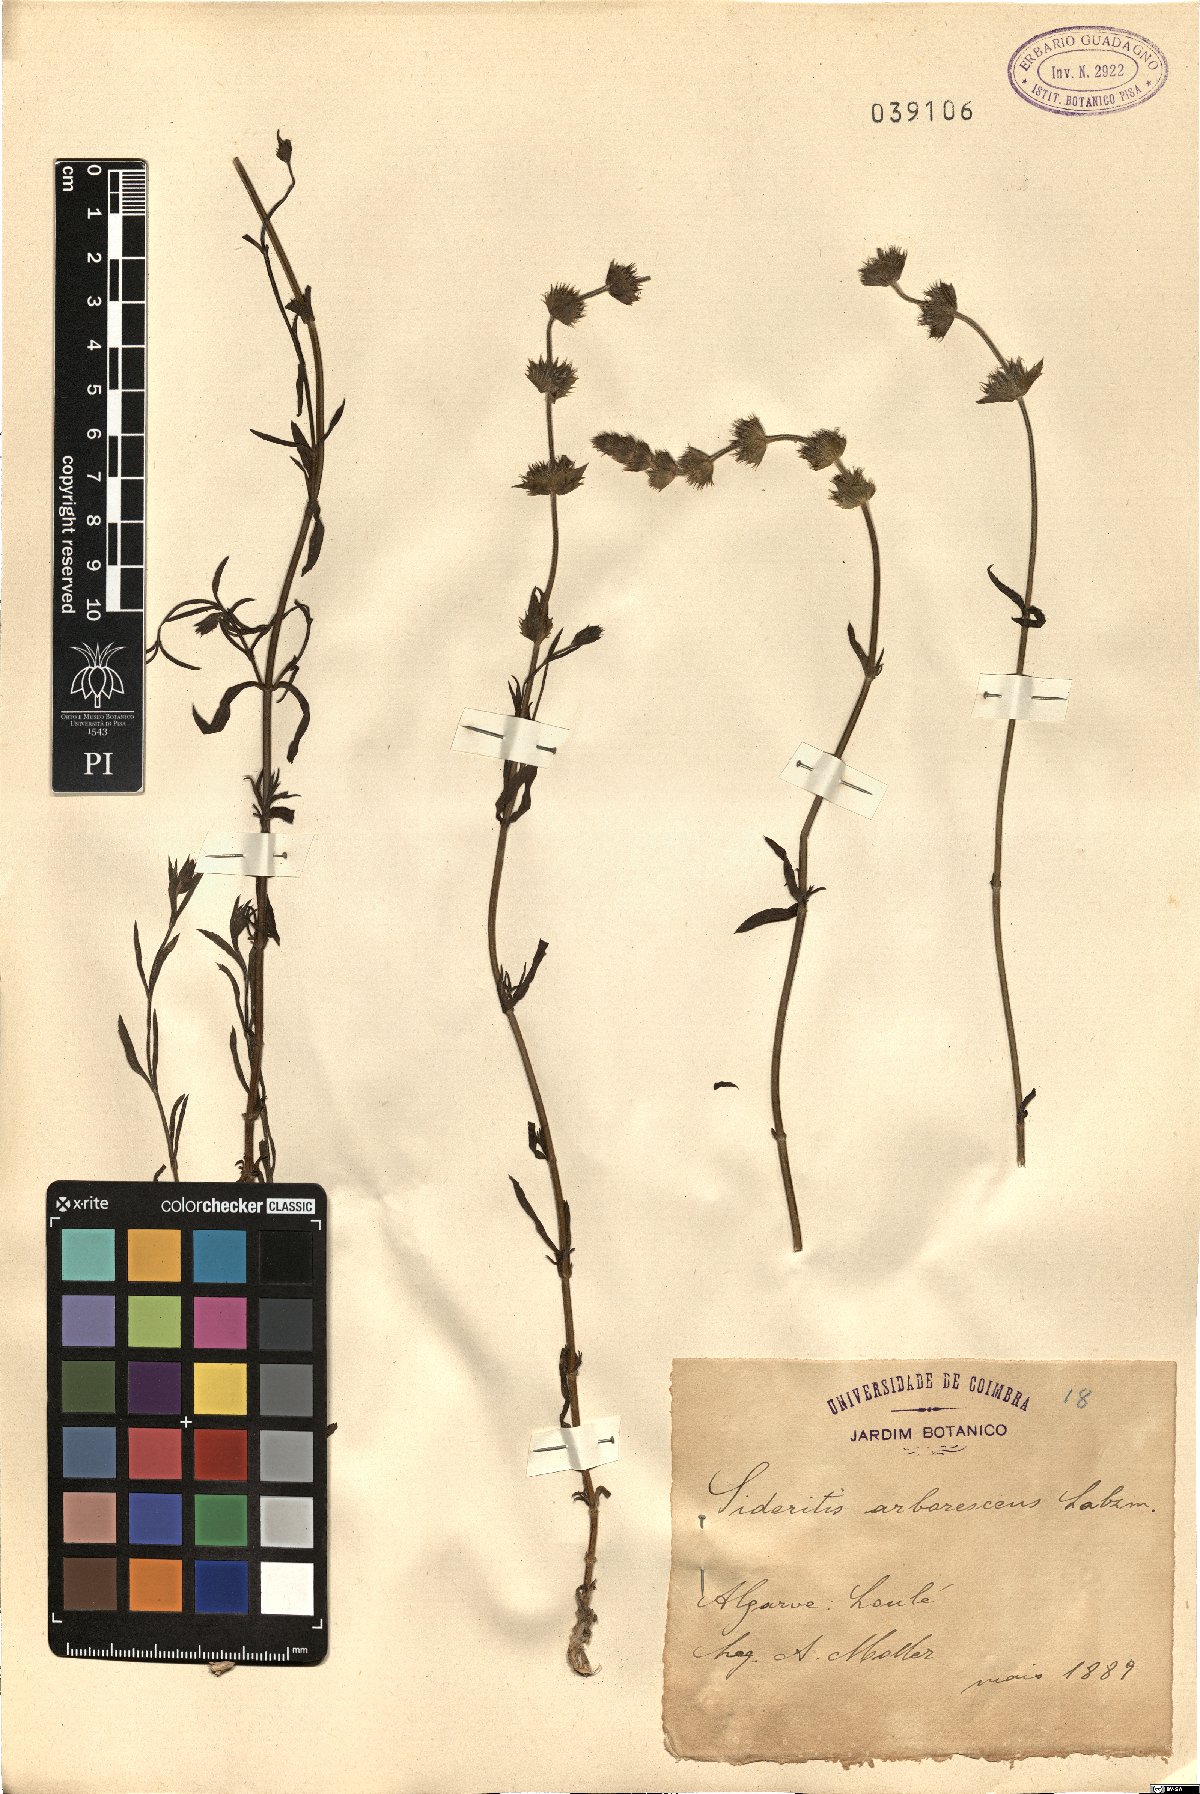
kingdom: Plantae
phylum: Tracheophyta
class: Magnoliopsida
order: Lamiales
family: Lamiaceae
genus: Sideritis
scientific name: Sideritis arborescens
